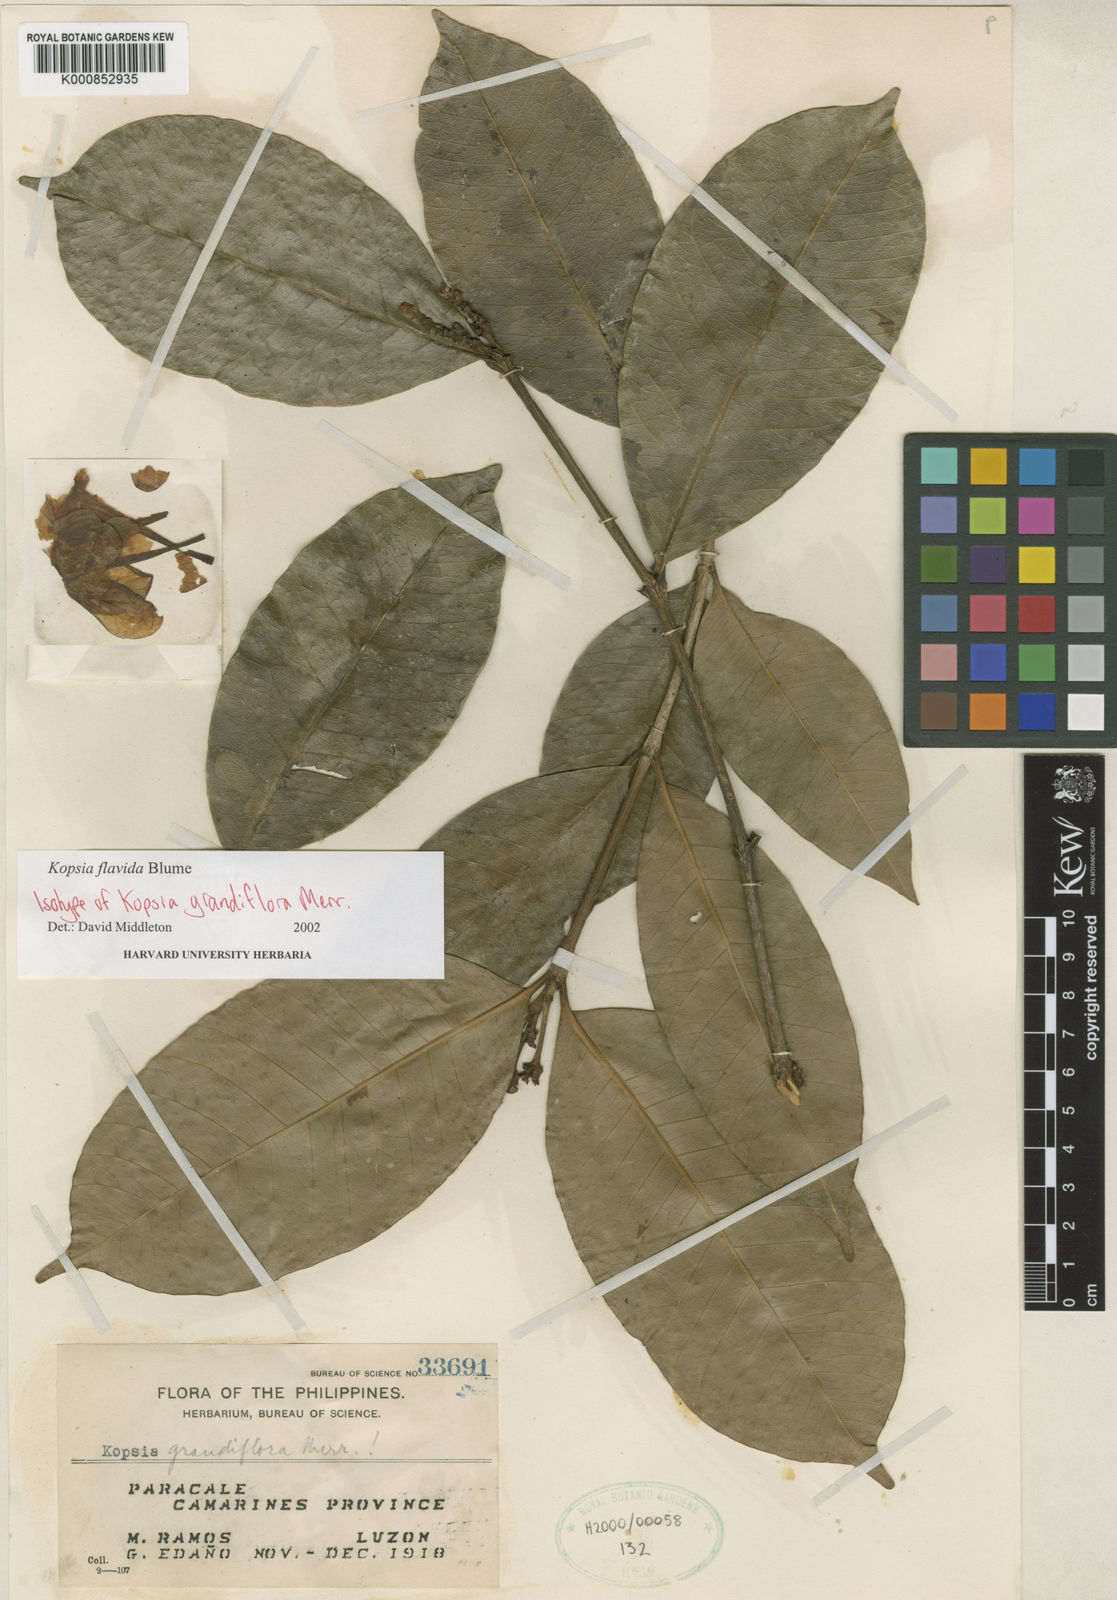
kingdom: Plantae
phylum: Tracheophyta
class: Magnoliopsida
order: Gentianales
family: Apocynaceae
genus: Kopsia
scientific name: Kopsia flavida
